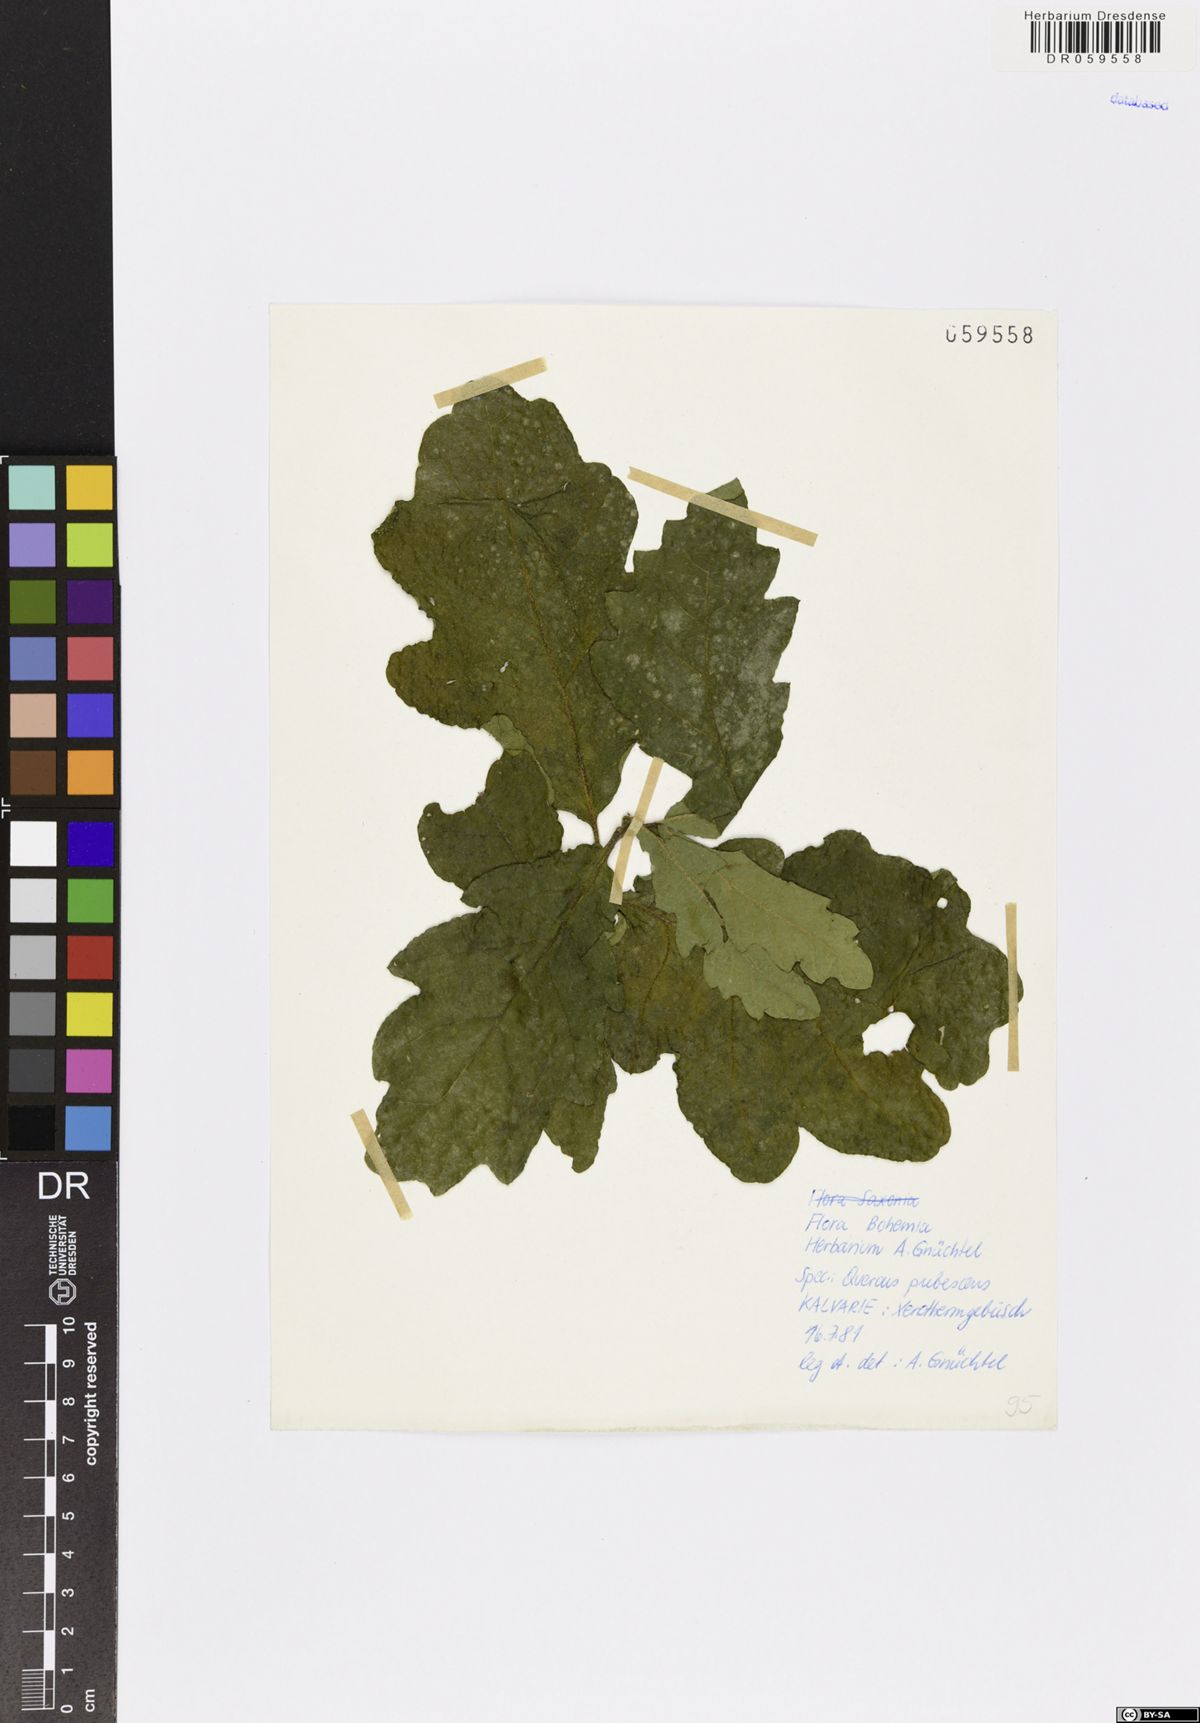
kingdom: Plantae
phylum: Tracheophyta
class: Magnoliopsida
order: Fagales
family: Fagaceae
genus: Quercus
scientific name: Quercus pubescens
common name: Downy oak
